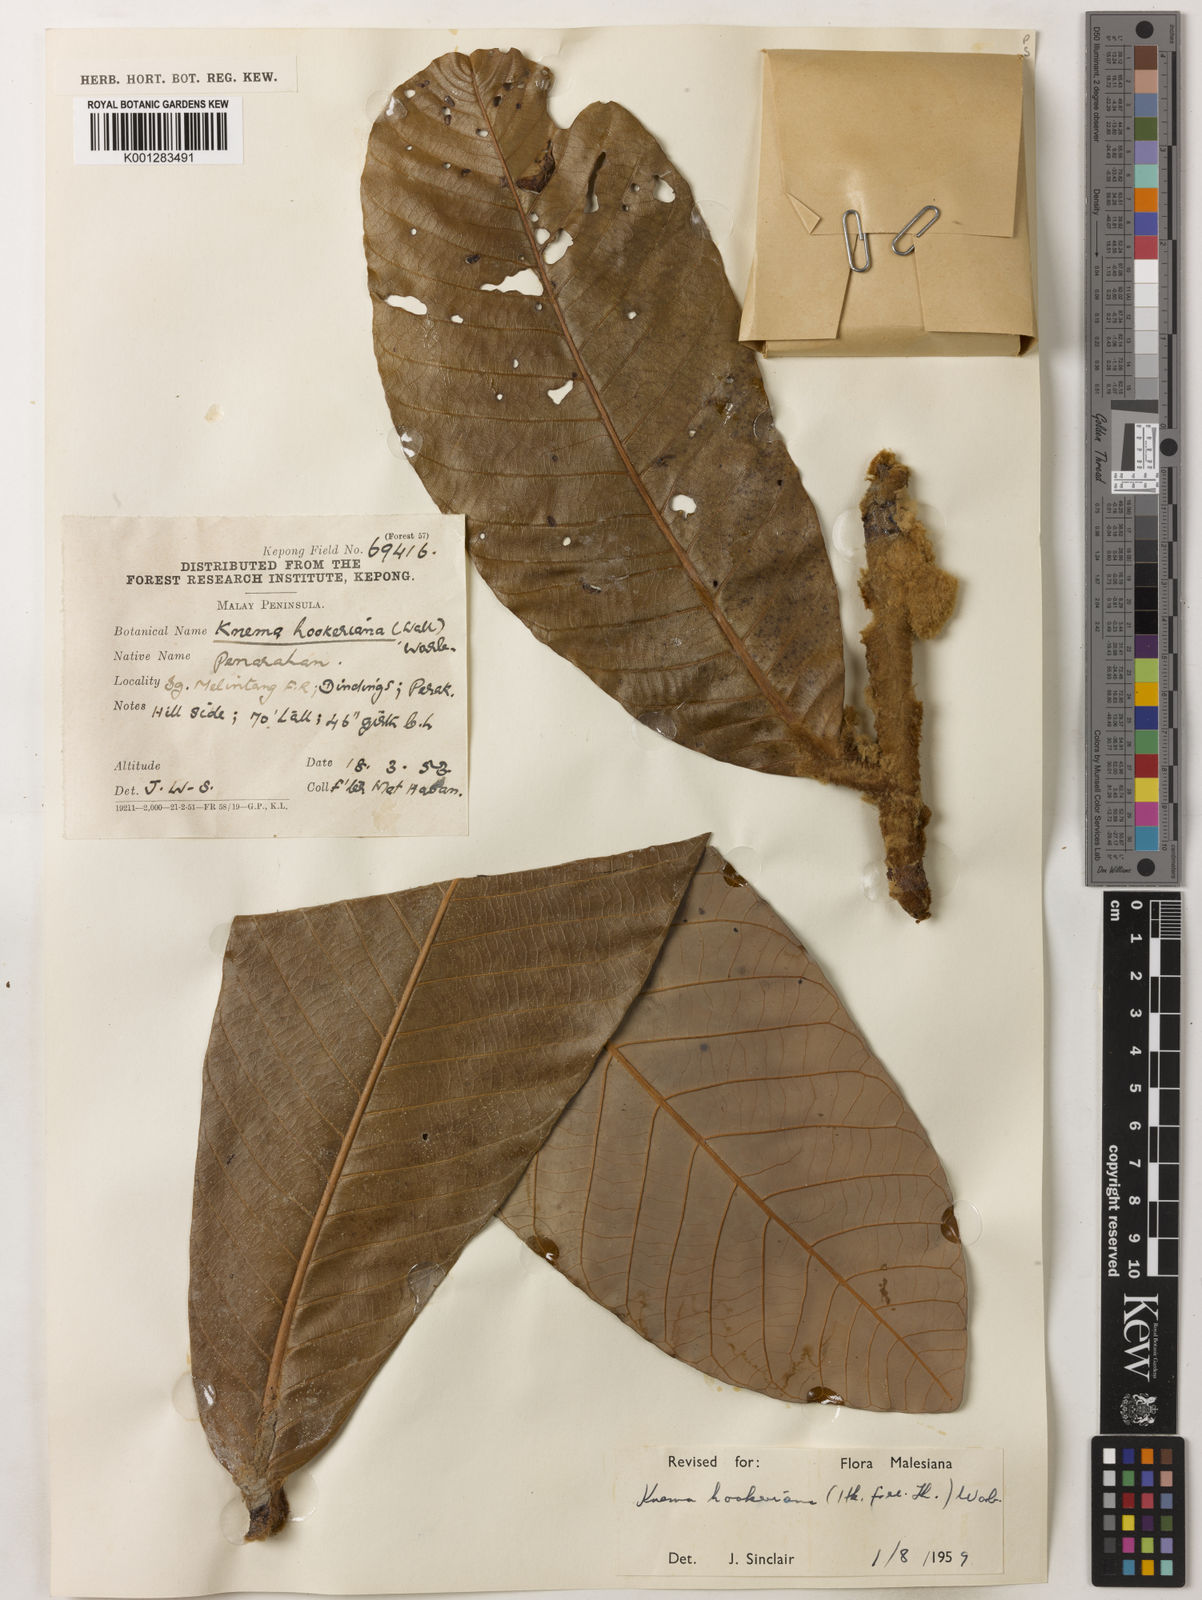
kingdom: Plantae
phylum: Tracheophyta
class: Magnoliopsida
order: Magnoliales
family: Myristicaceae
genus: Knema
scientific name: Knema hookeriana
